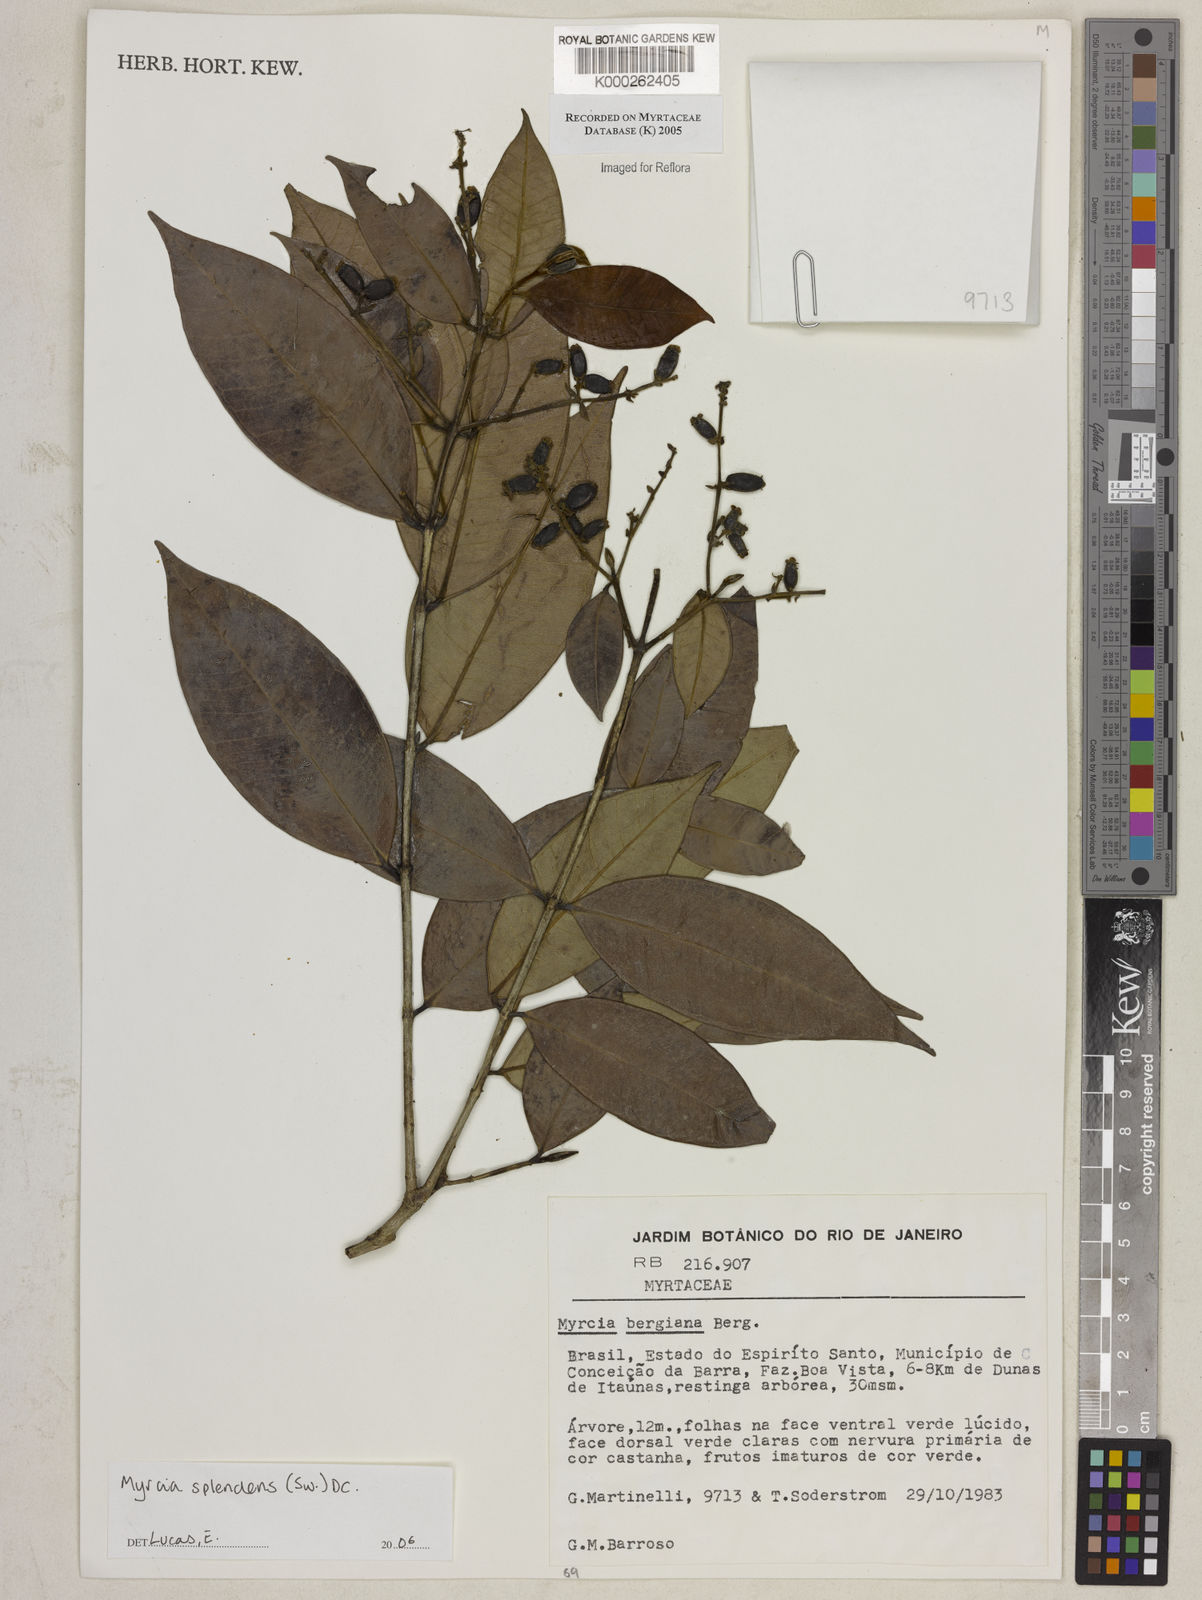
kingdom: Plantae
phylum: Tracheophyta
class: Magnoliopsida
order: Myrtales
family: Myrtaceae
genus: Myrcia
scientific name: Myrcia splendens
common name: Surinam cherry
